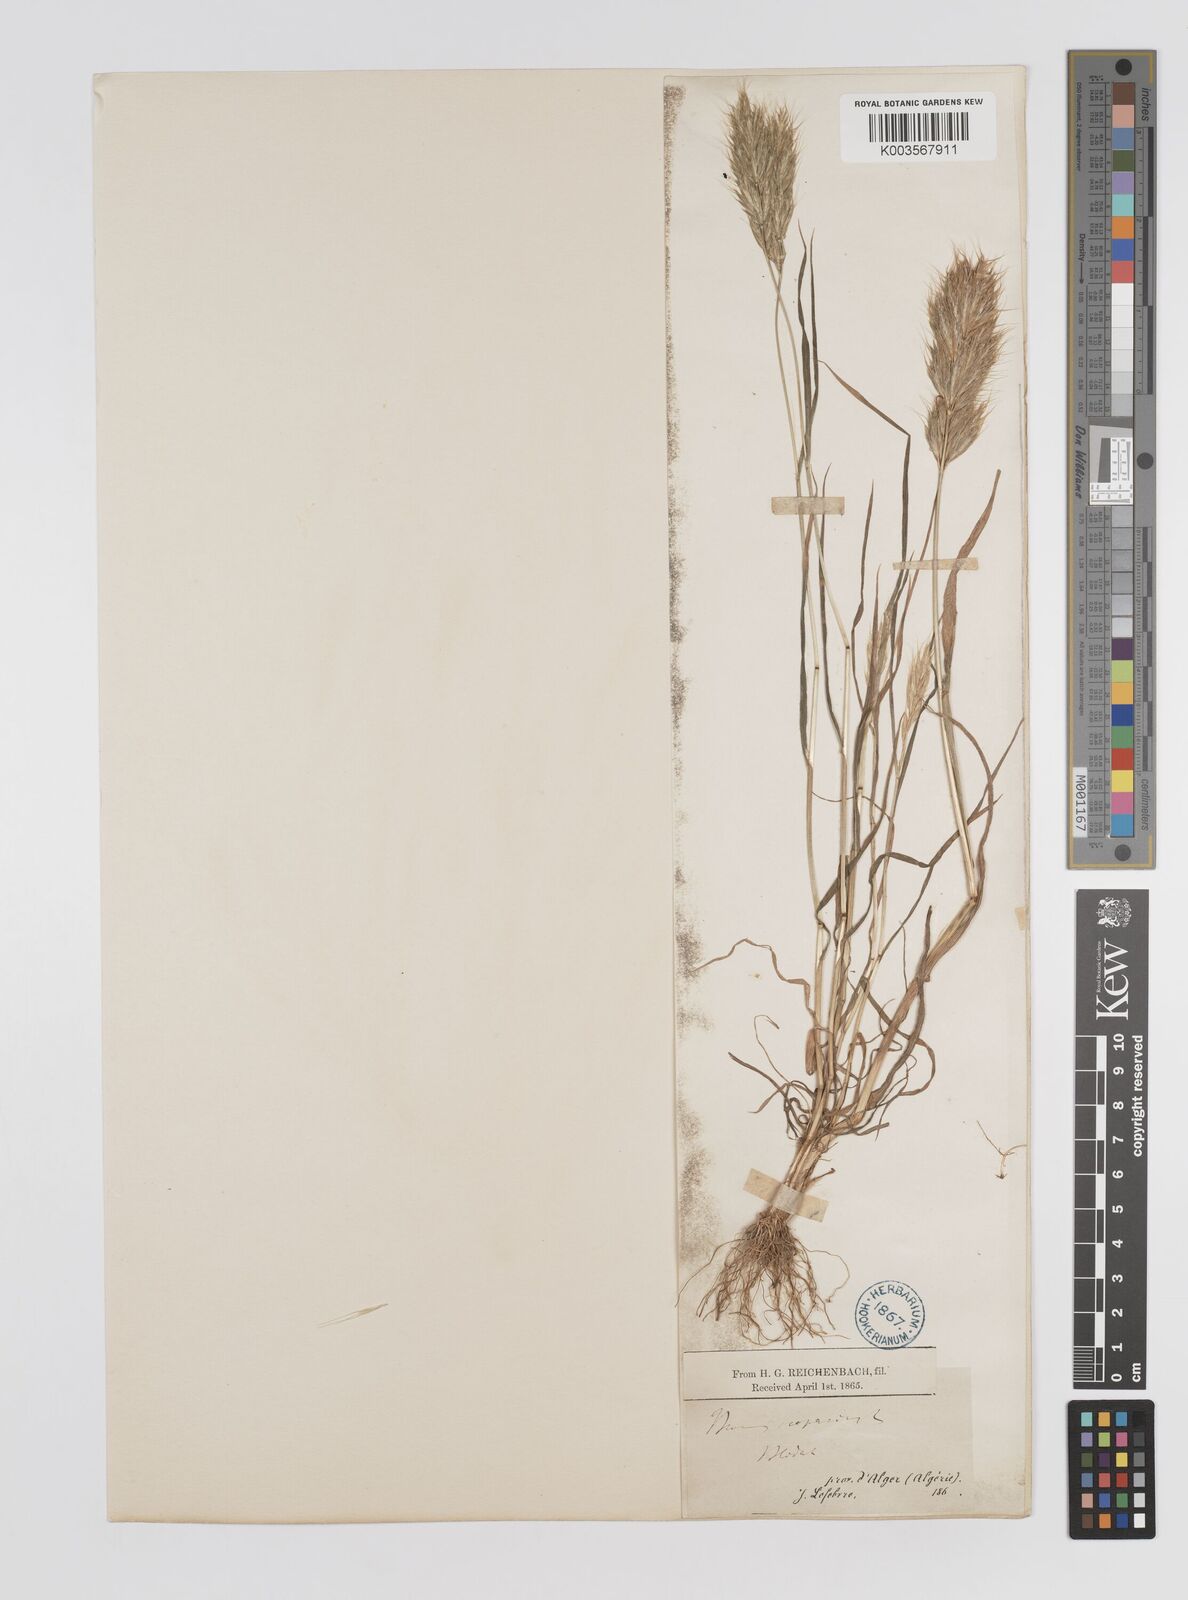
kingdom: Plantae
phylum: Tracheophyta
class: Liliopsida
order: Poales
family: Poaceae
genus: Bromus
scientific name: Bromus scoparius
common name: Broom brome
